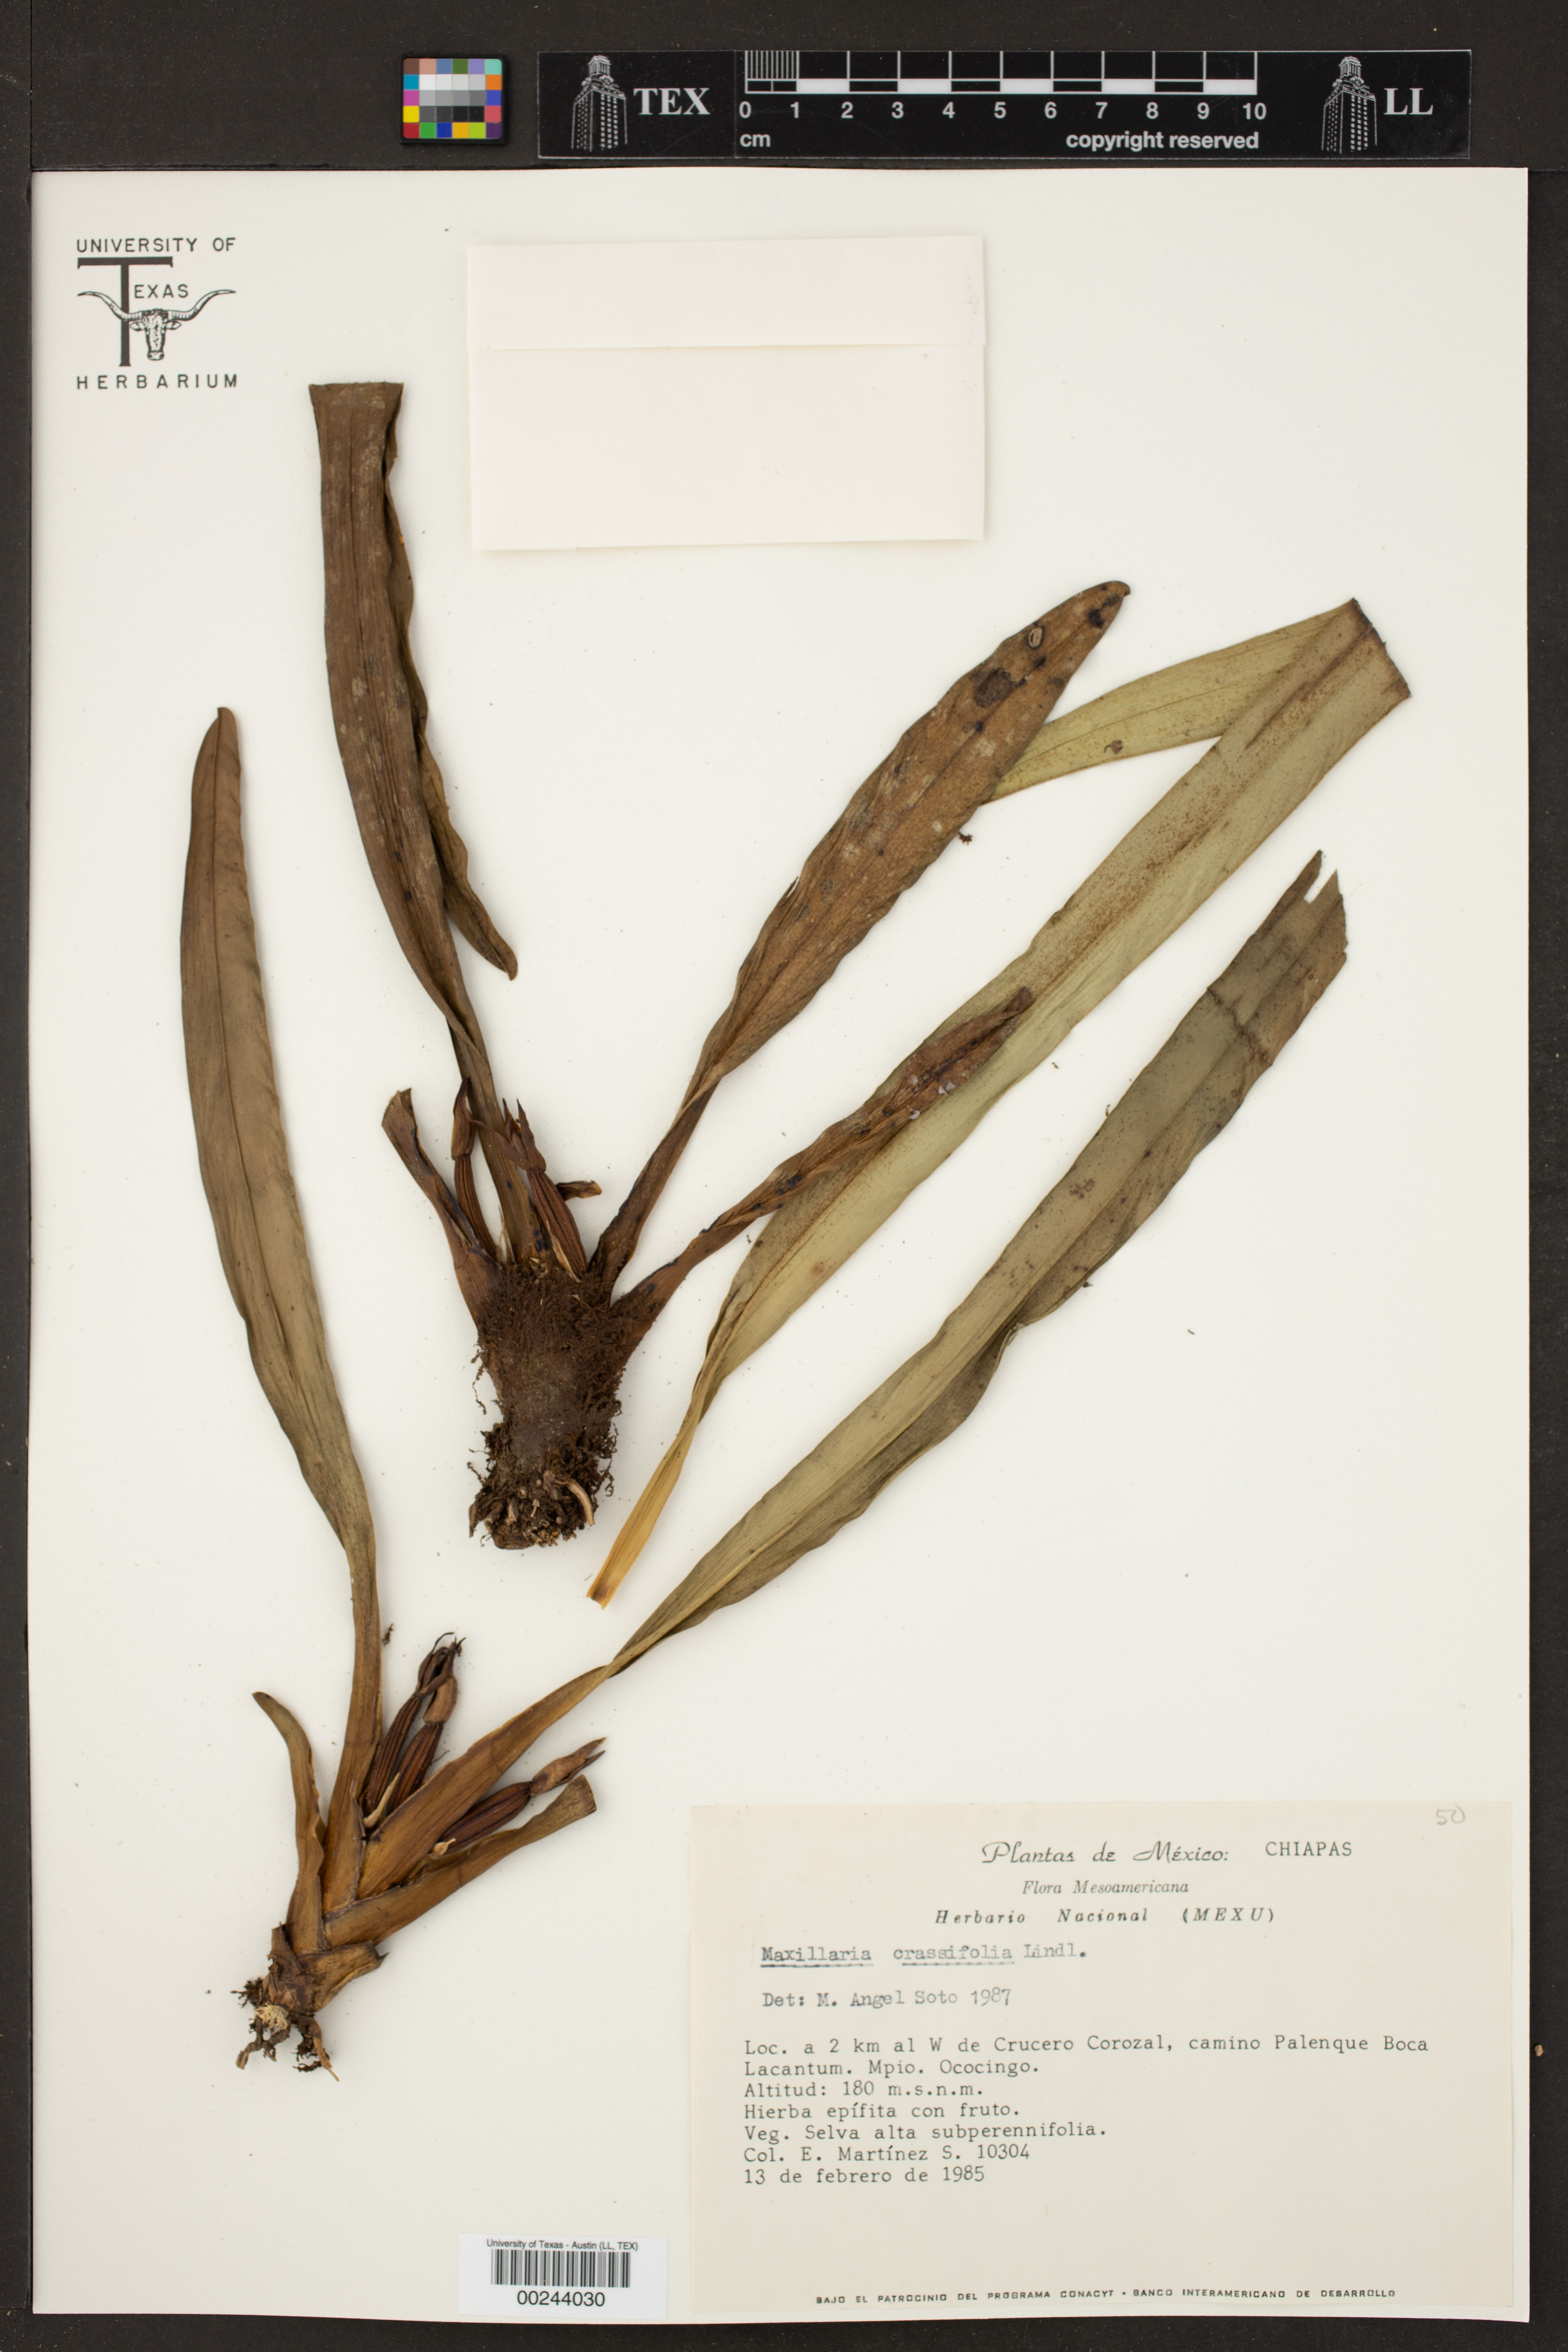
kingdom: Plantae
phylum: Tracheophyta
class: Liliopsida
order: Asparagales
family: Orchidaceae
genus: Maxillaria
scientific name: Maxillaria crassifolia
